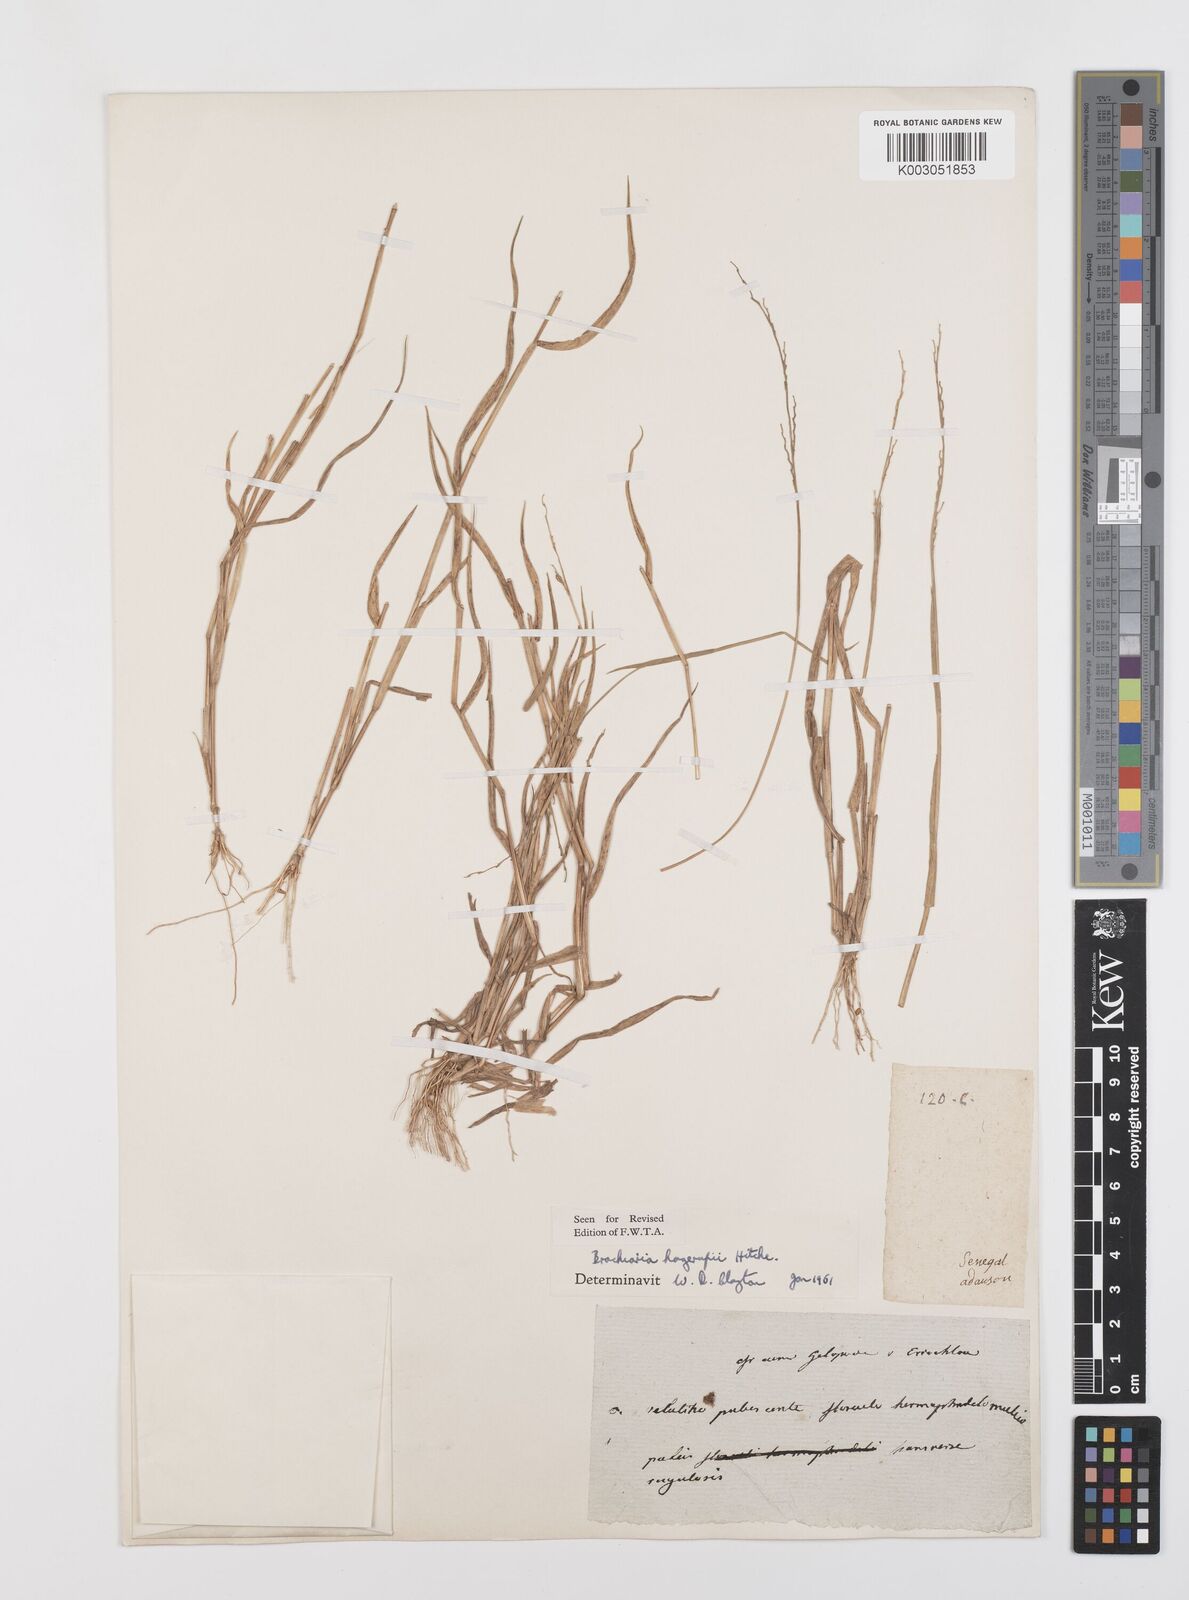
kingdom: Plantae
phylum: Tracheophyta
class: Liliopsida
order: Poales
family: Poaceae
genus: Urochloa
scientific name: Urochloa orthostachys
